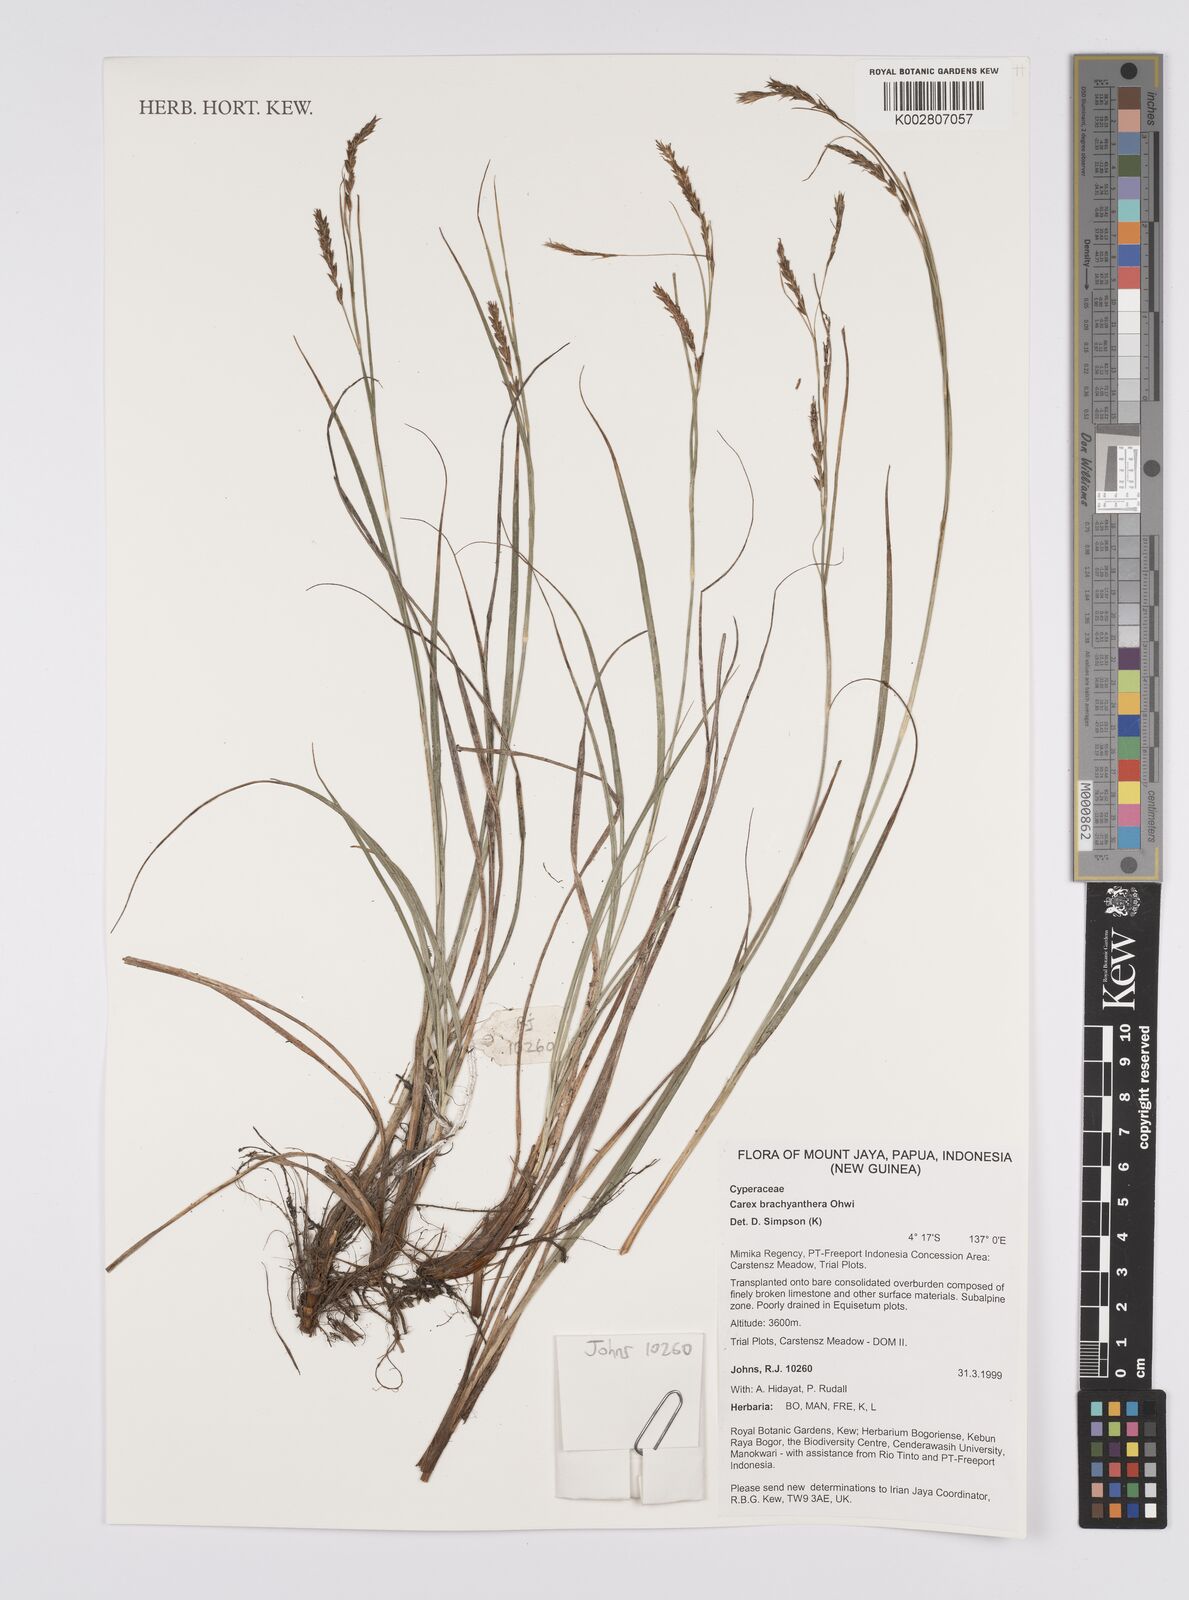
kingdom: Plantae
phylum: Tracheophyta
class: Liliopsida
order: Poales
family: Cyperaceae
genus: Carex
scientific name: Carex brachyanthera
